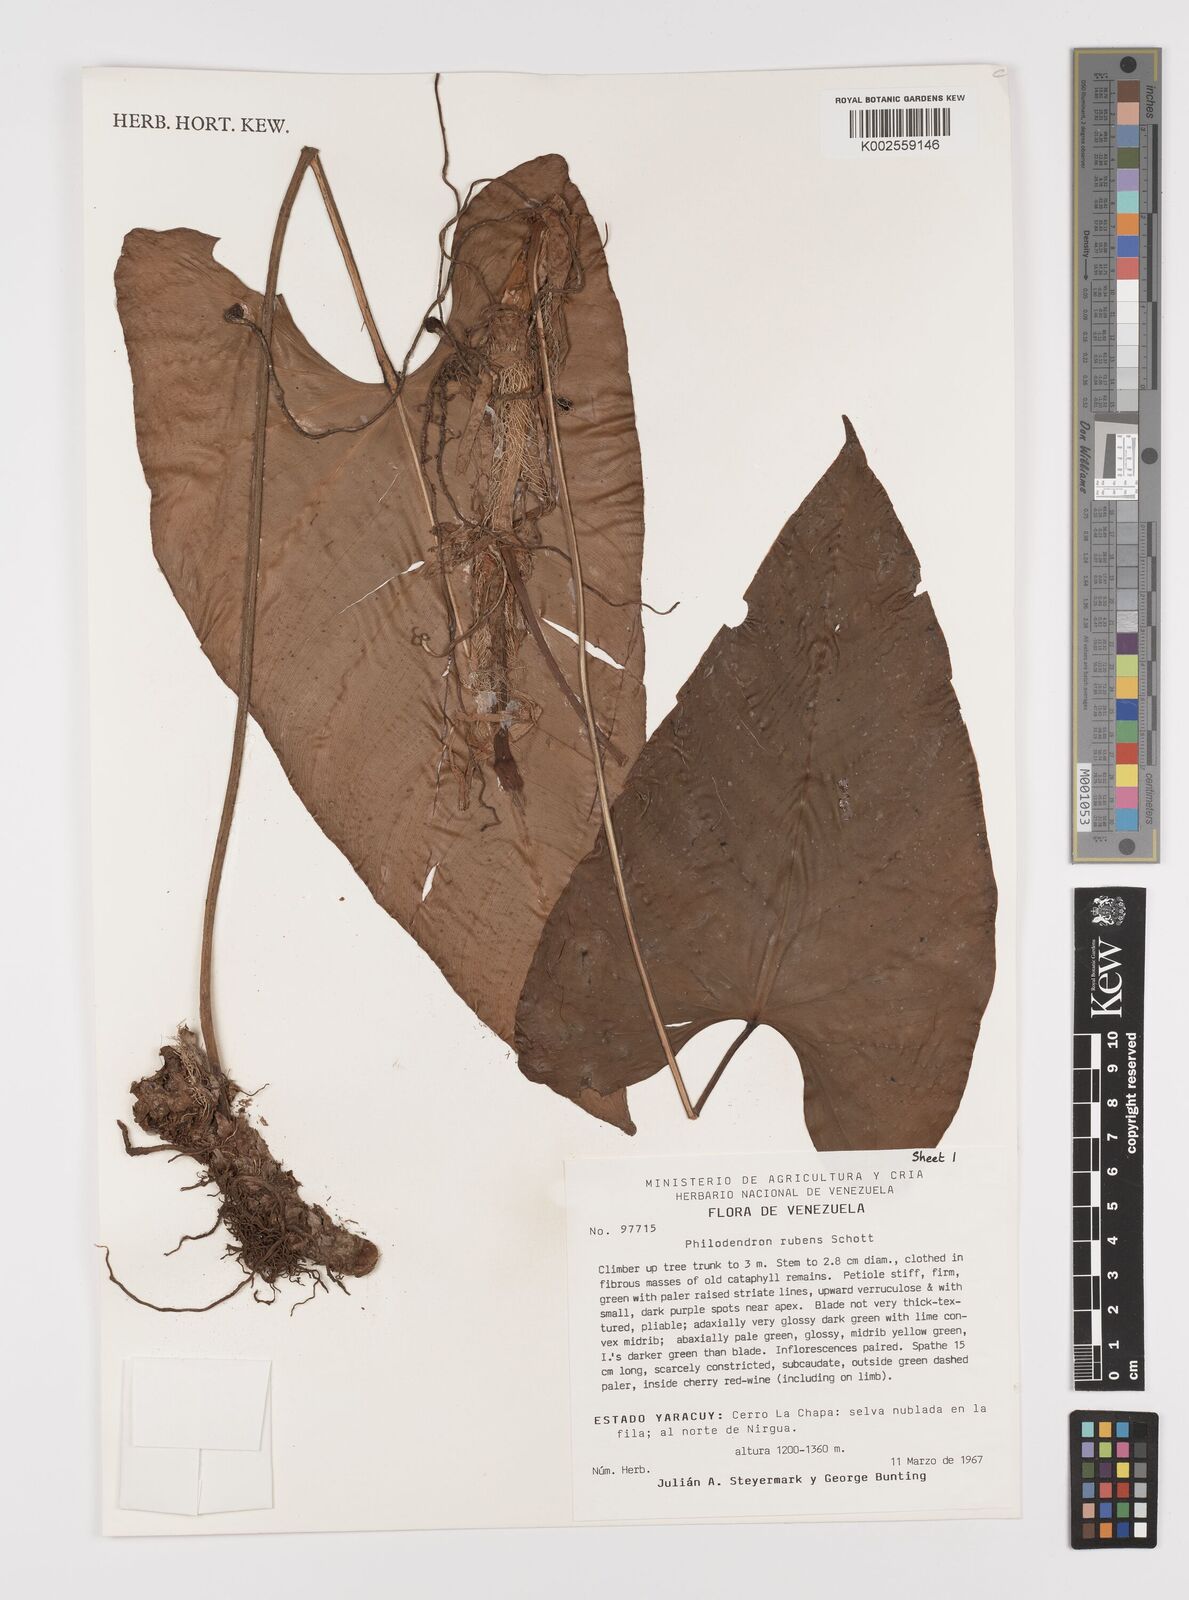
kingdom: Plantae
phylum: Tracheophyta
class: Liliopsida
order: Alismatales
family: Araceae
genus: Philodendron
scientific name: Philodendron ornatum
